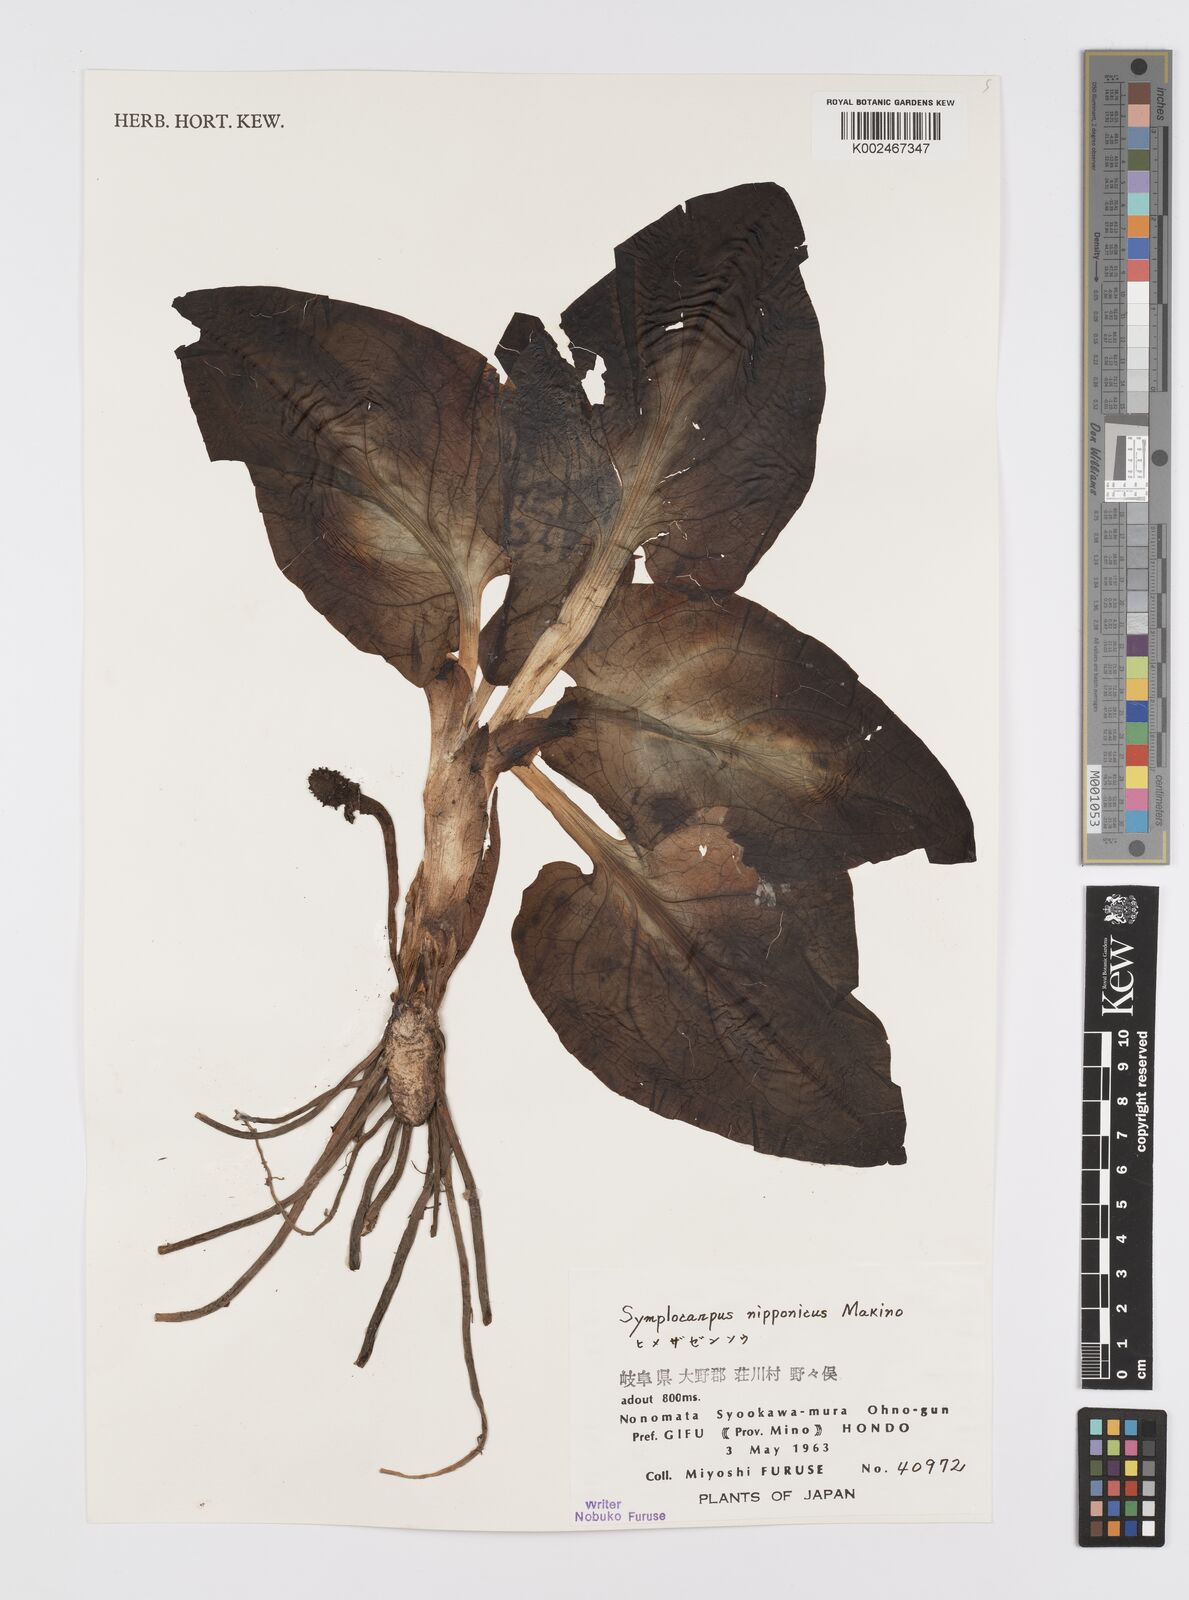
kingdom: Plantae
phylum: Tracheophyta
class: Liliopsida
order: Alismatales
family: Araceae
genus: Symplocarpus
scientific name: Symplocarpus nipponicus
